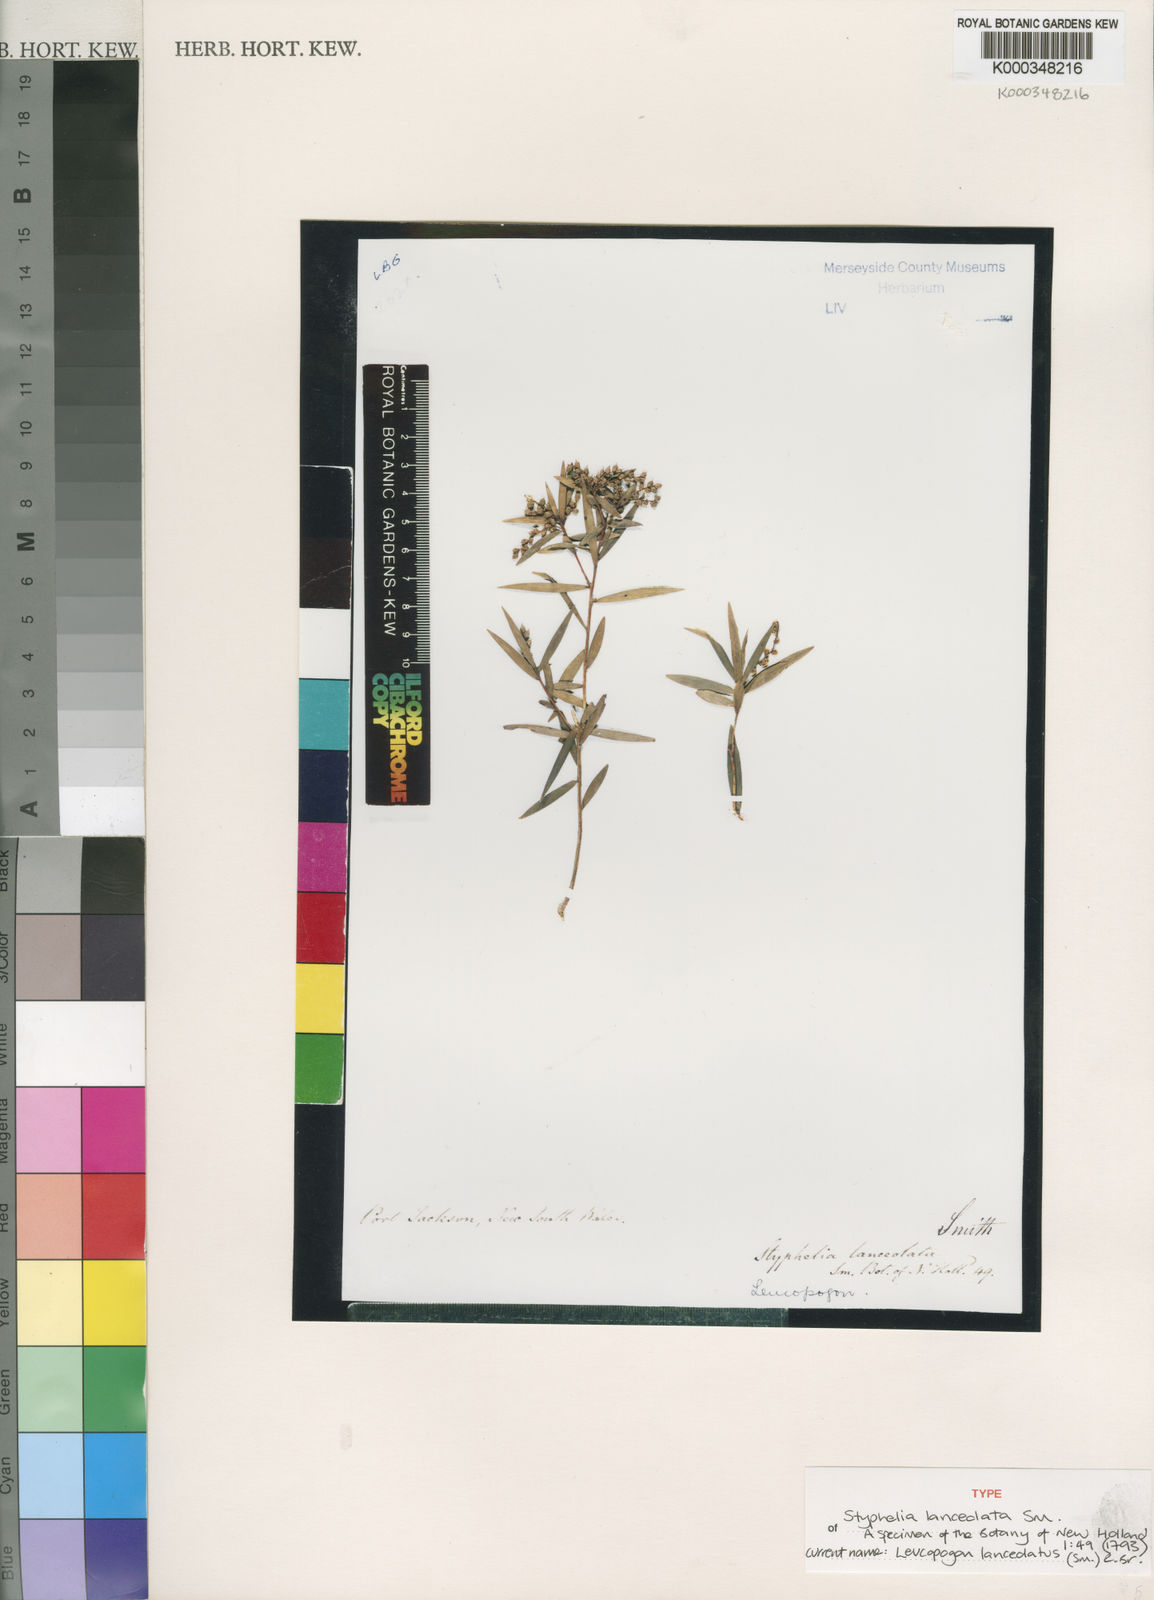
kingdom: Plantae
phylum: Tracheophyta
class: Magnoliopsida
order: Ericales
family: Ericaceae
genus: Leucopogon
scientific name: Leucopogon lanceolatus
